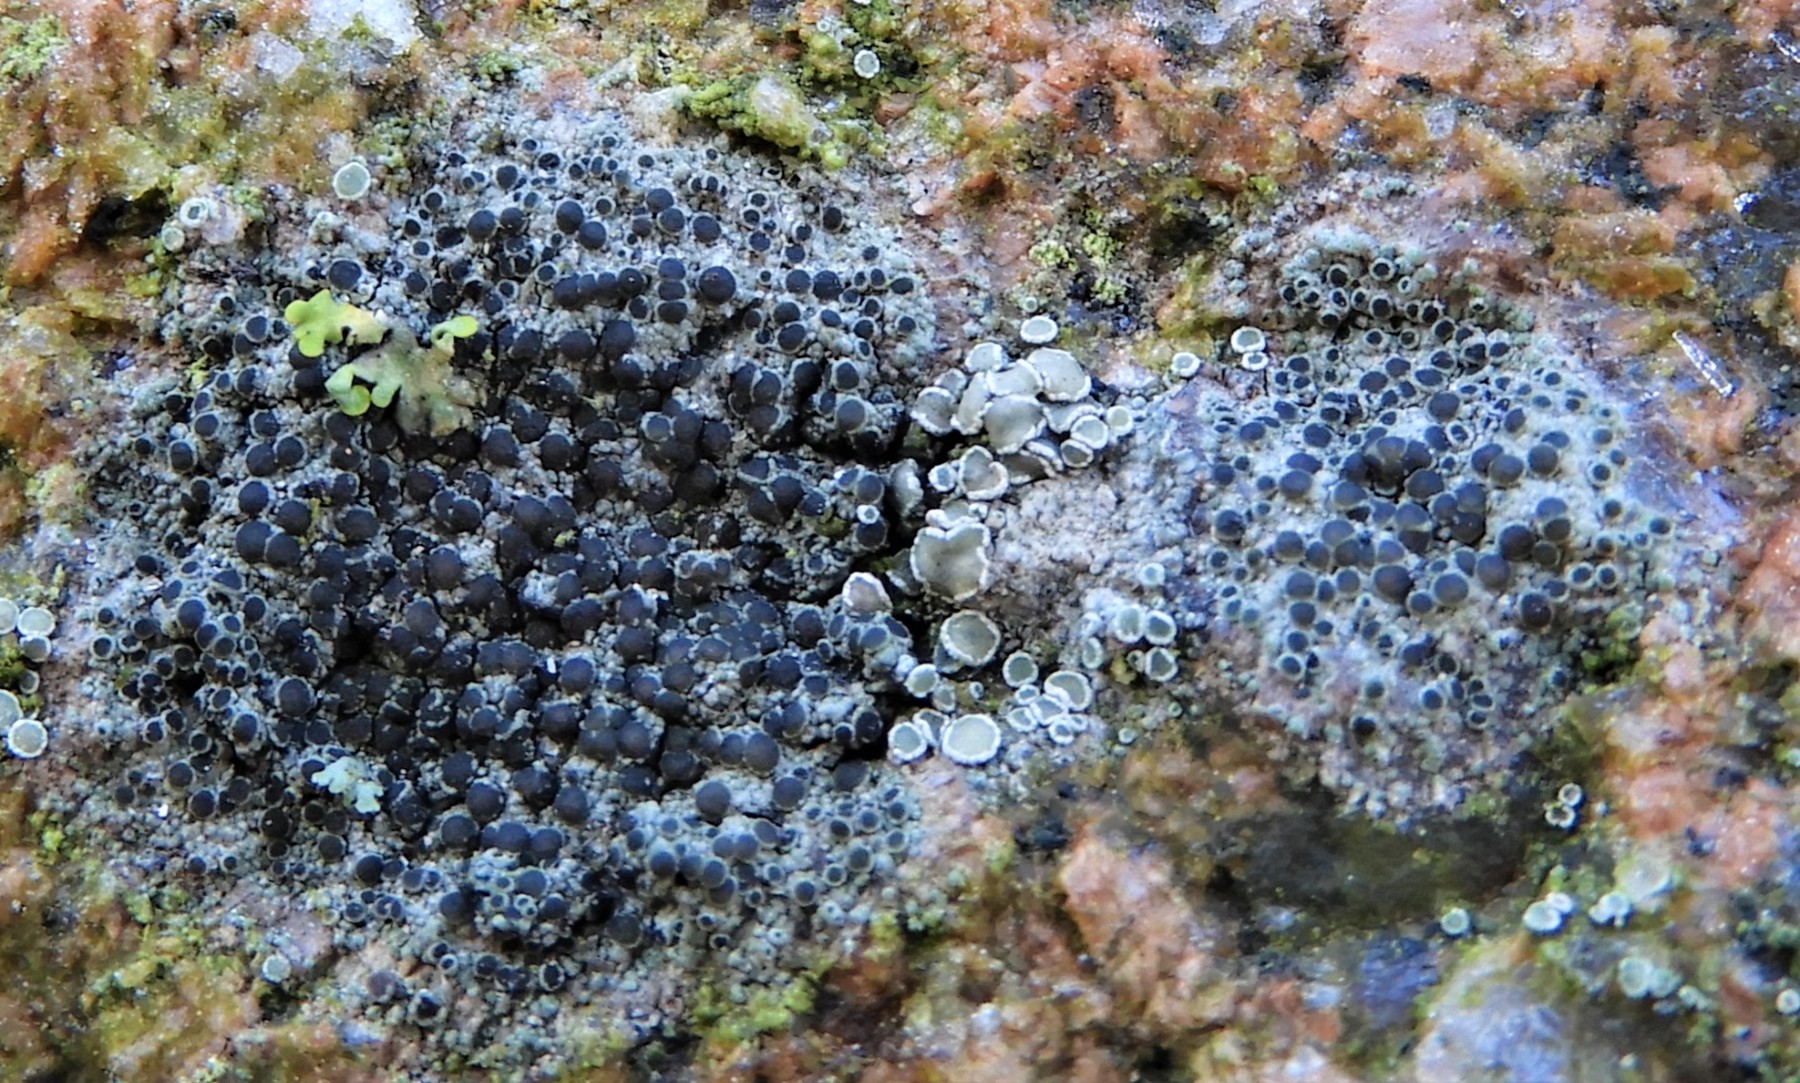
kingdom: Fungi
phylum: Ascomycota
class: Lecanoromycetes
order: Lecanorales
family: Lecanoraceae
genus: Lecanora
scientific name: Lecanora
